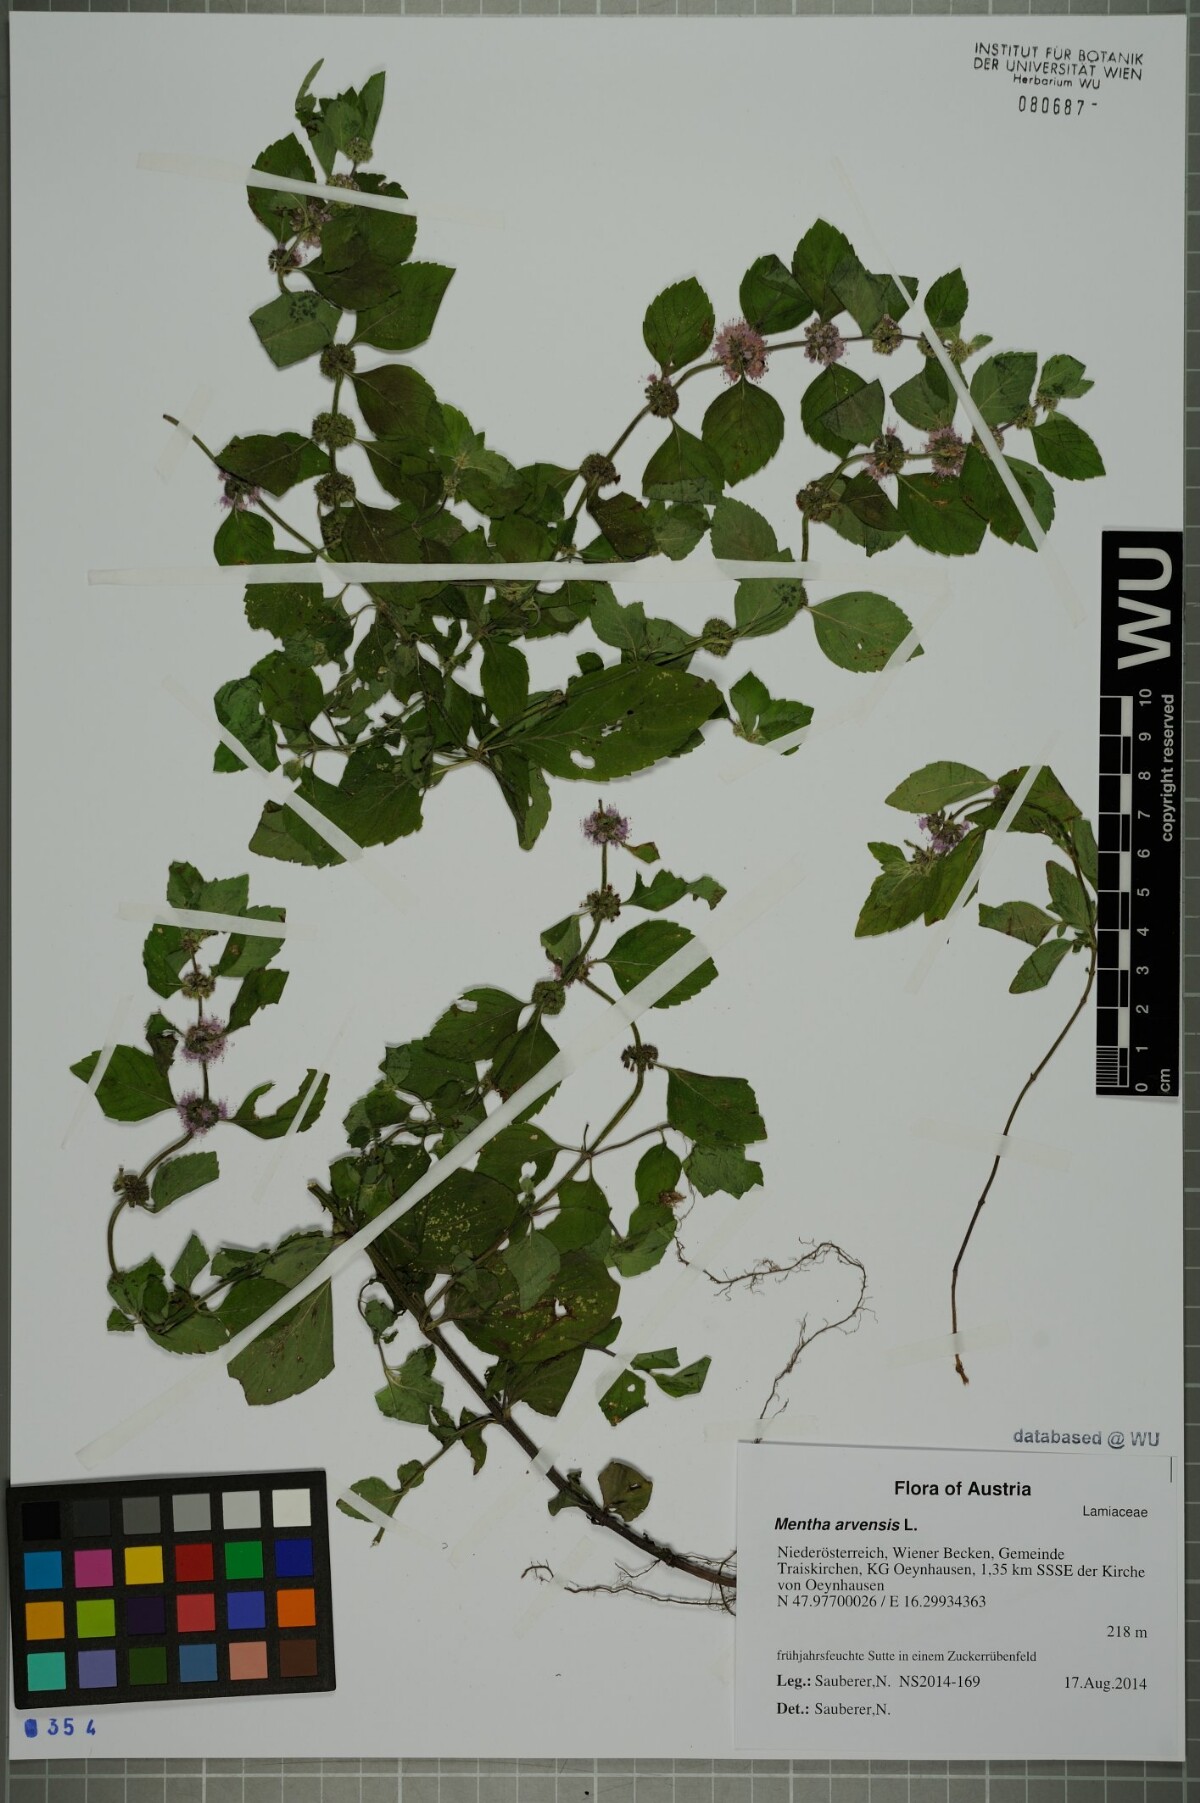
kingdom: Plantae
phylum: Tracheophyta
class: Magnoliopsida
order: Lamiales
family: Lamiaceae
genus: Mentha
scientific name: Mentha arvensis
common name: Corn mint
